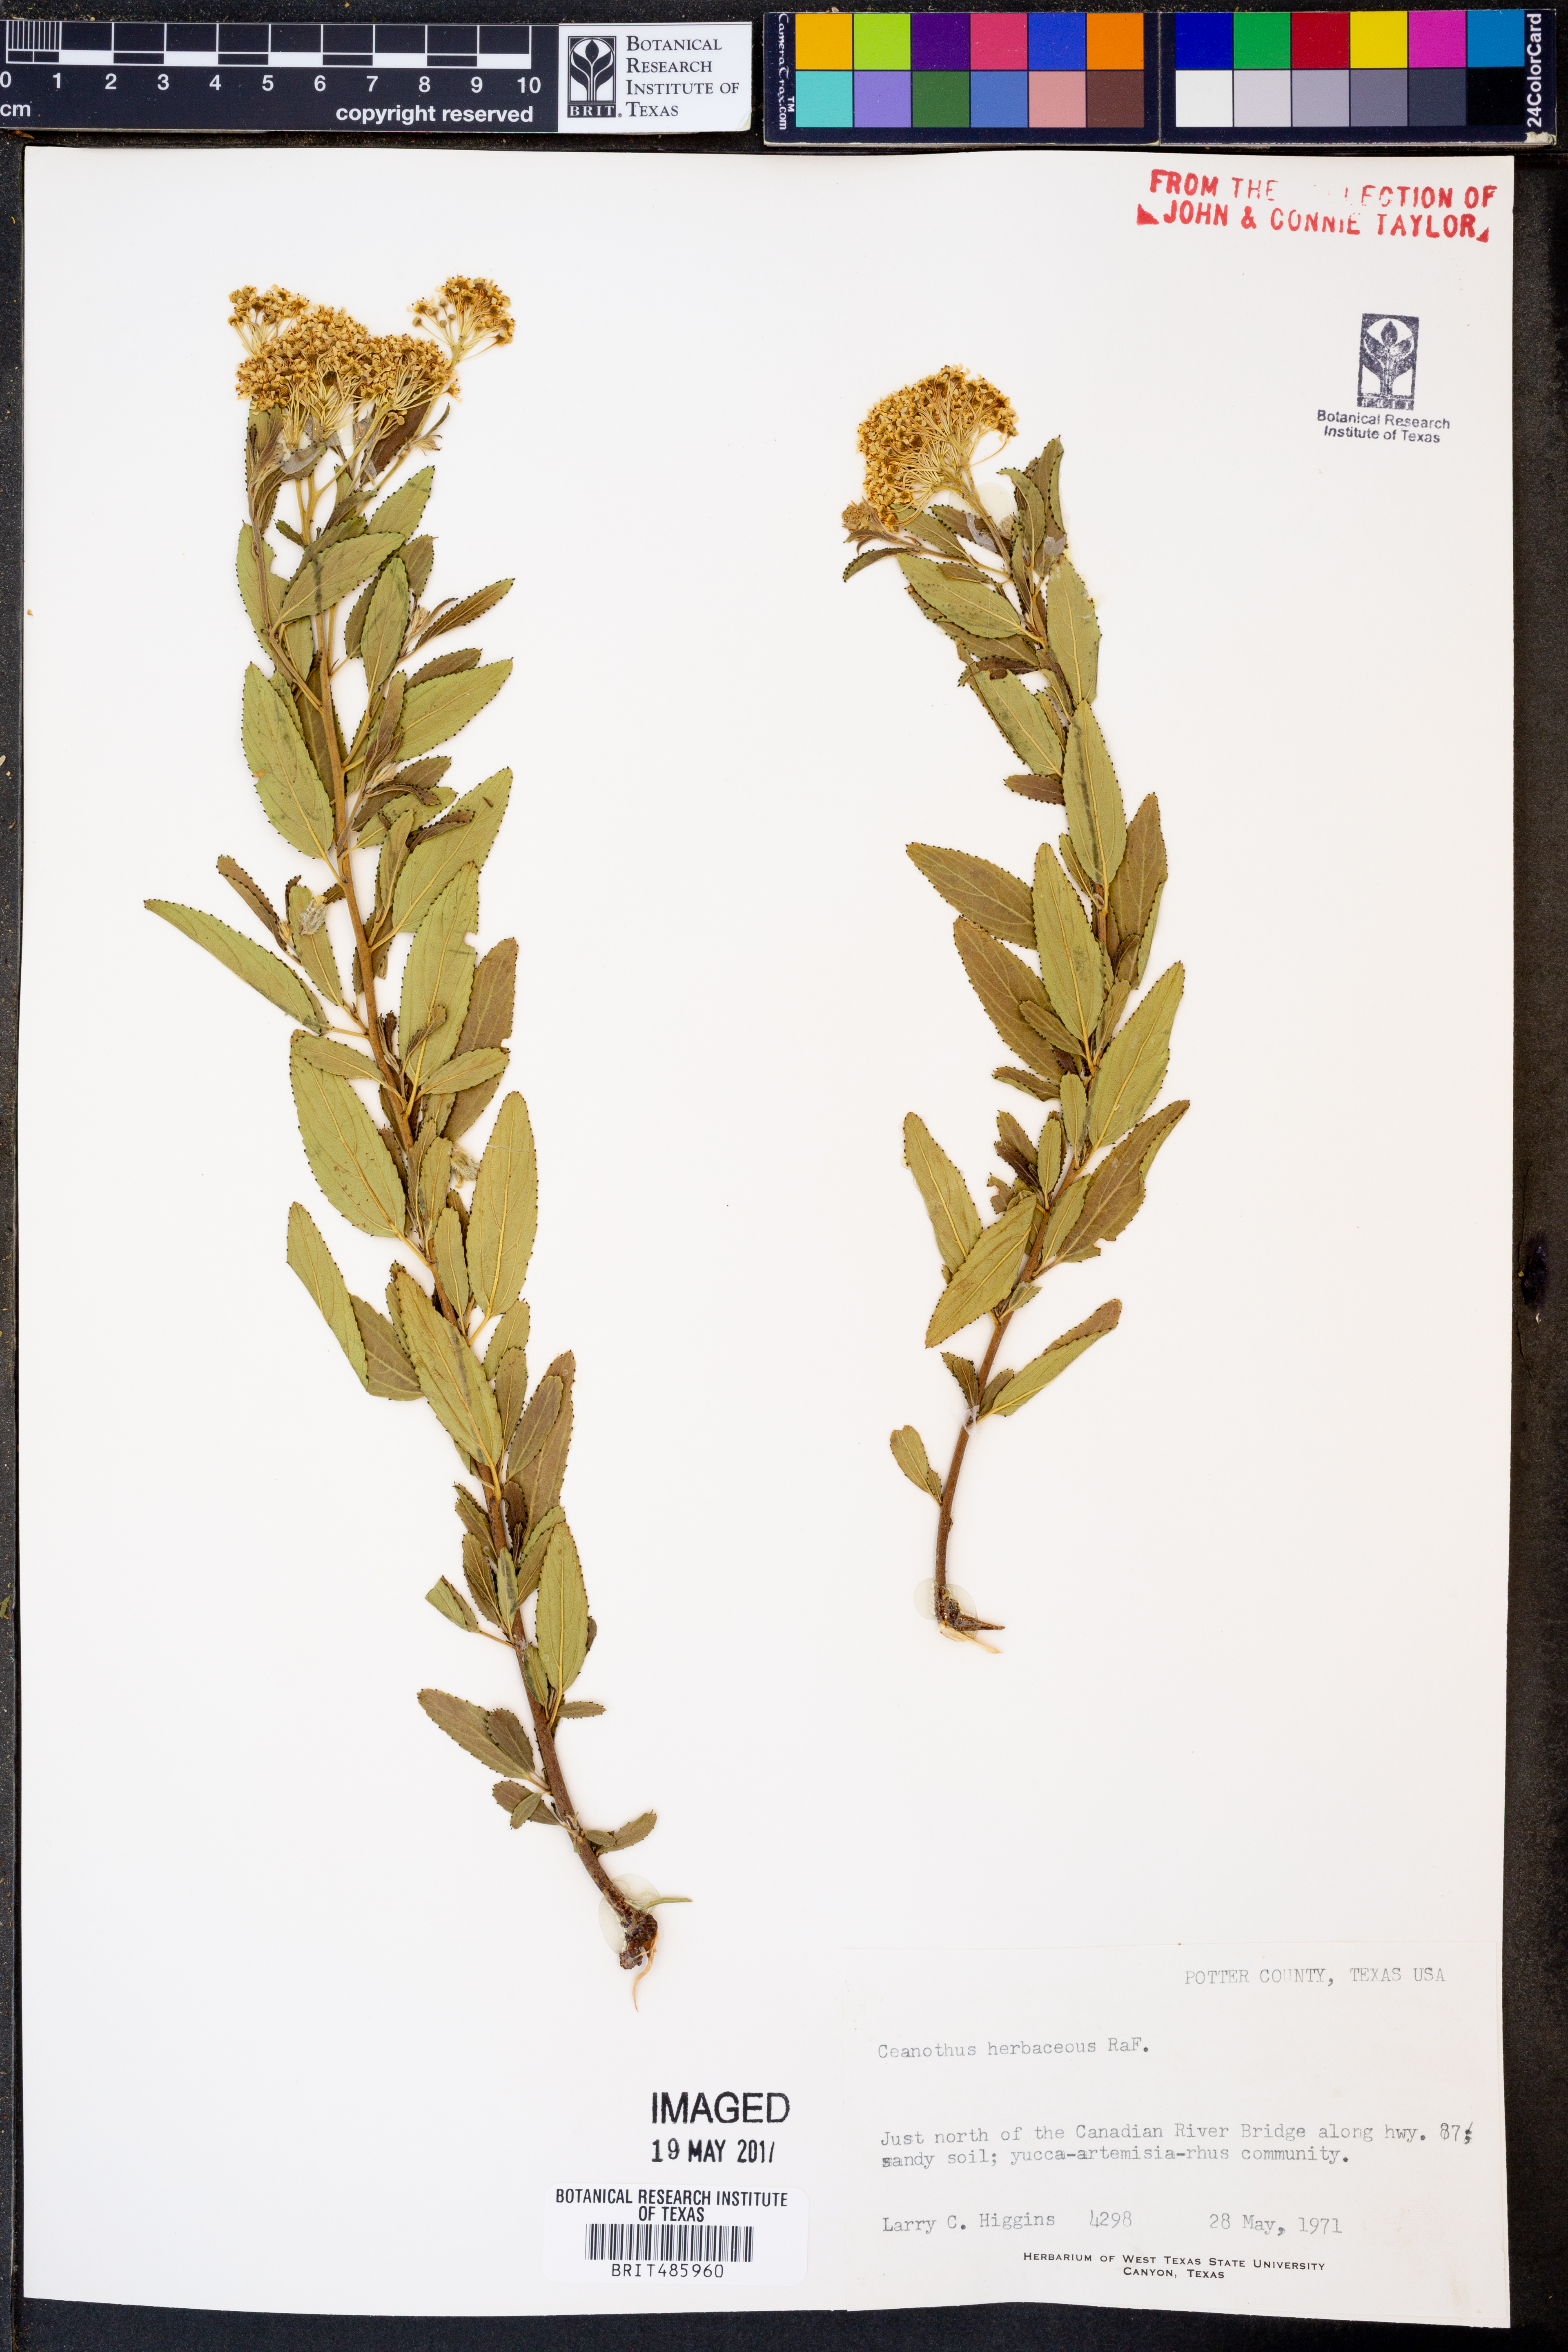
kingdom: Plantae
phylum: Tracheophyta
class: Magnoliopsida
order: Rosales
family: Rhamnaceae
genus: Ceanothus
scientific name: Ceanothus herbaceus
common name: Inland ceanothus
